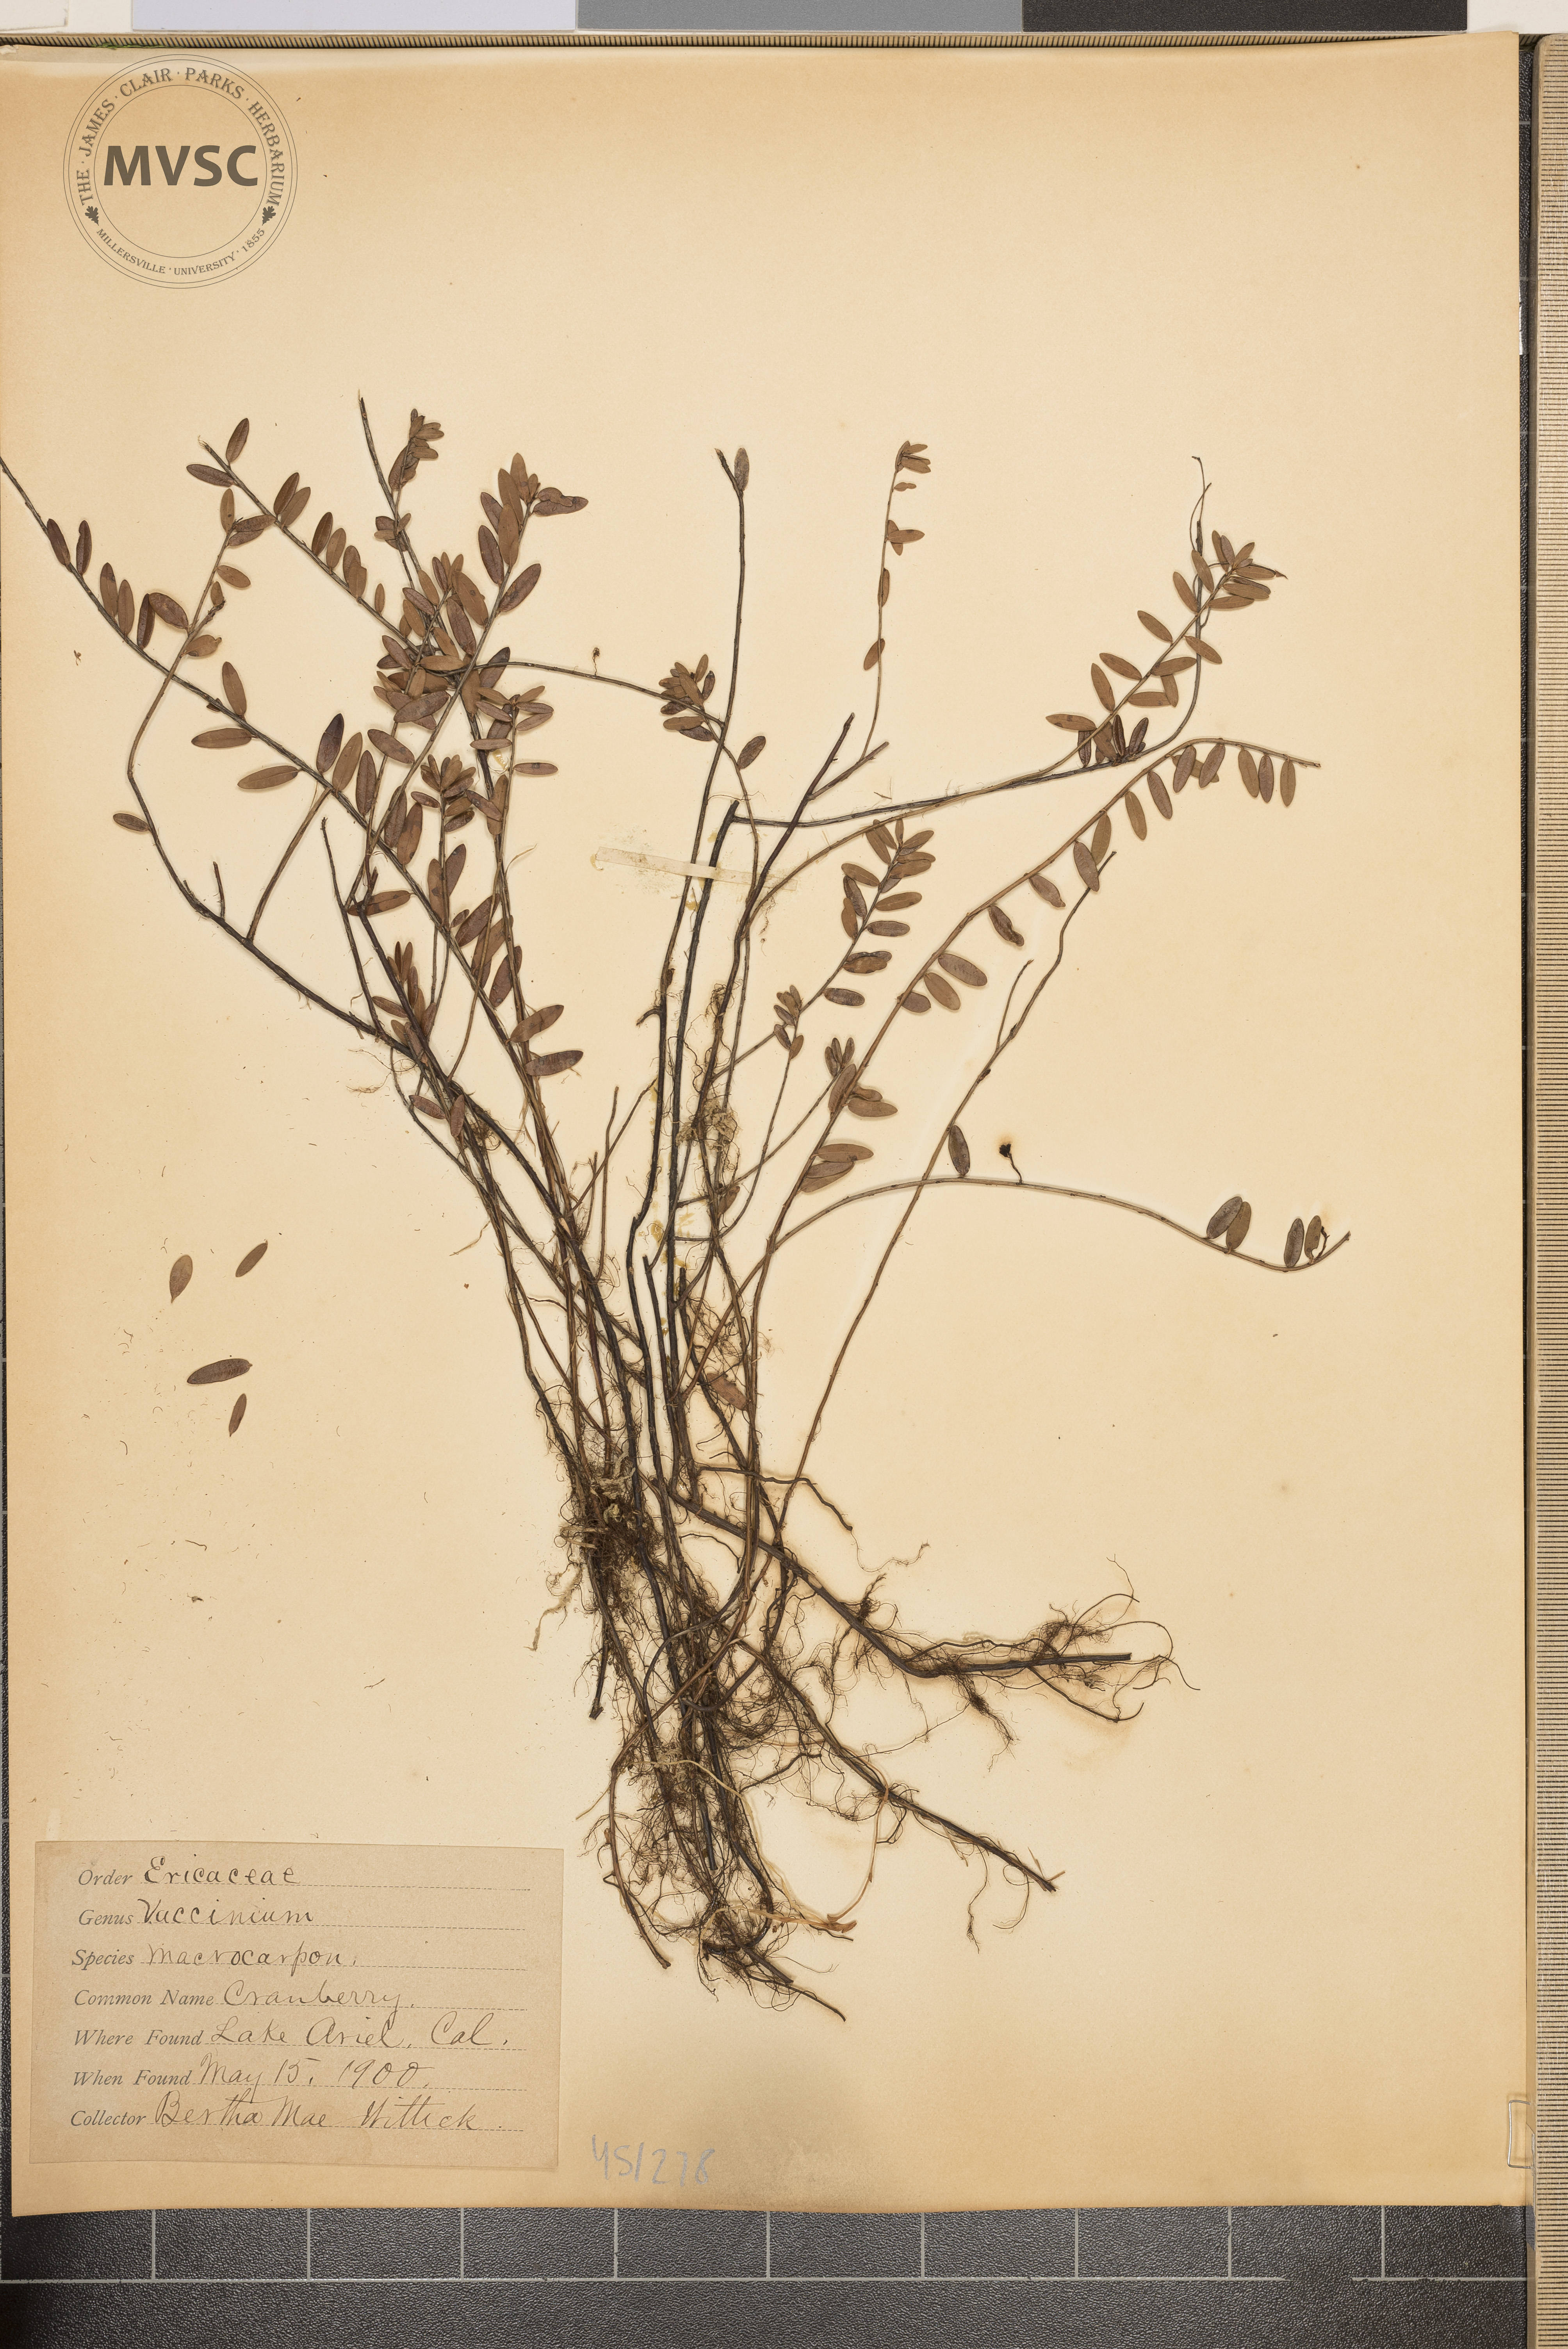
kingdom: Plantae
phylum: Tracheophyta
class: Magnoliopsida
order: Ericales
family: Ericaceae
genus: Vaccinium
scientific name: Vaccinium macrocarpon
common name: Cranberry
